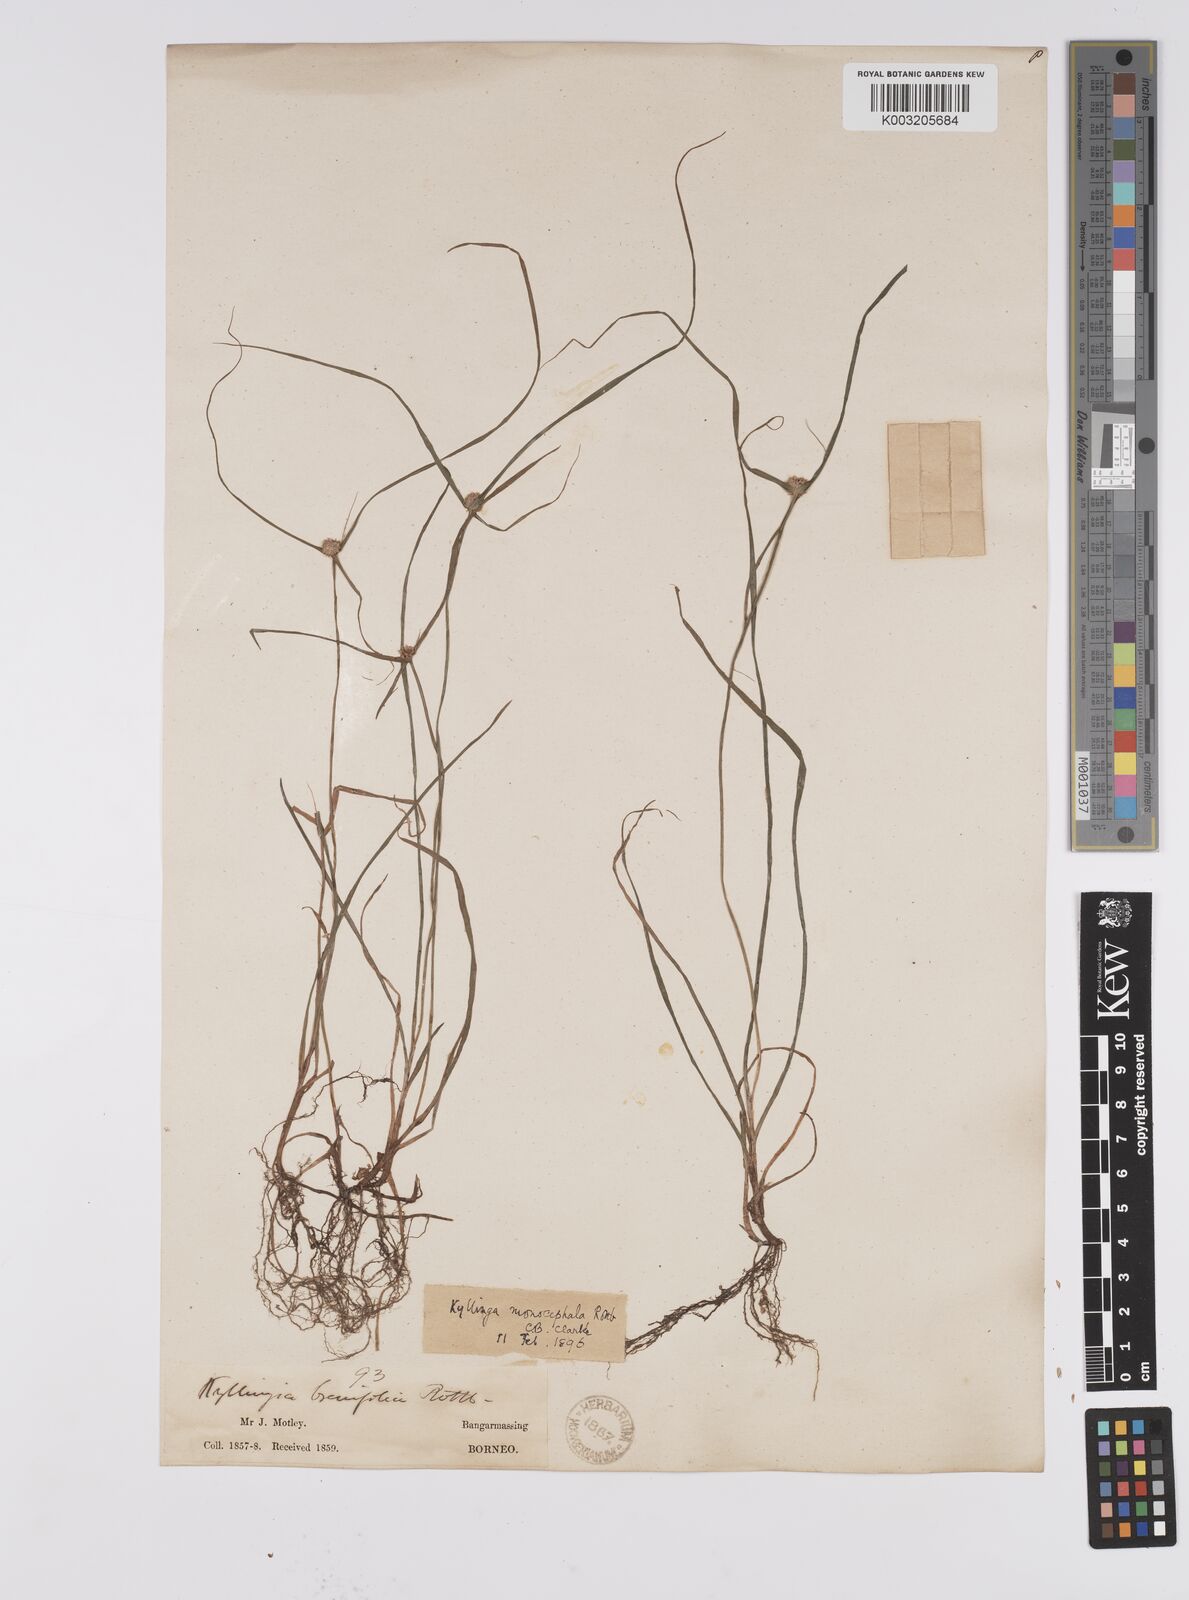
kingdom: Plantae
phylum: Tracheophyta
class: Liliopsida
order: Poales
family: Cyperaceae
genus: Cyperus
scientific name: Cyperus nemoralis
